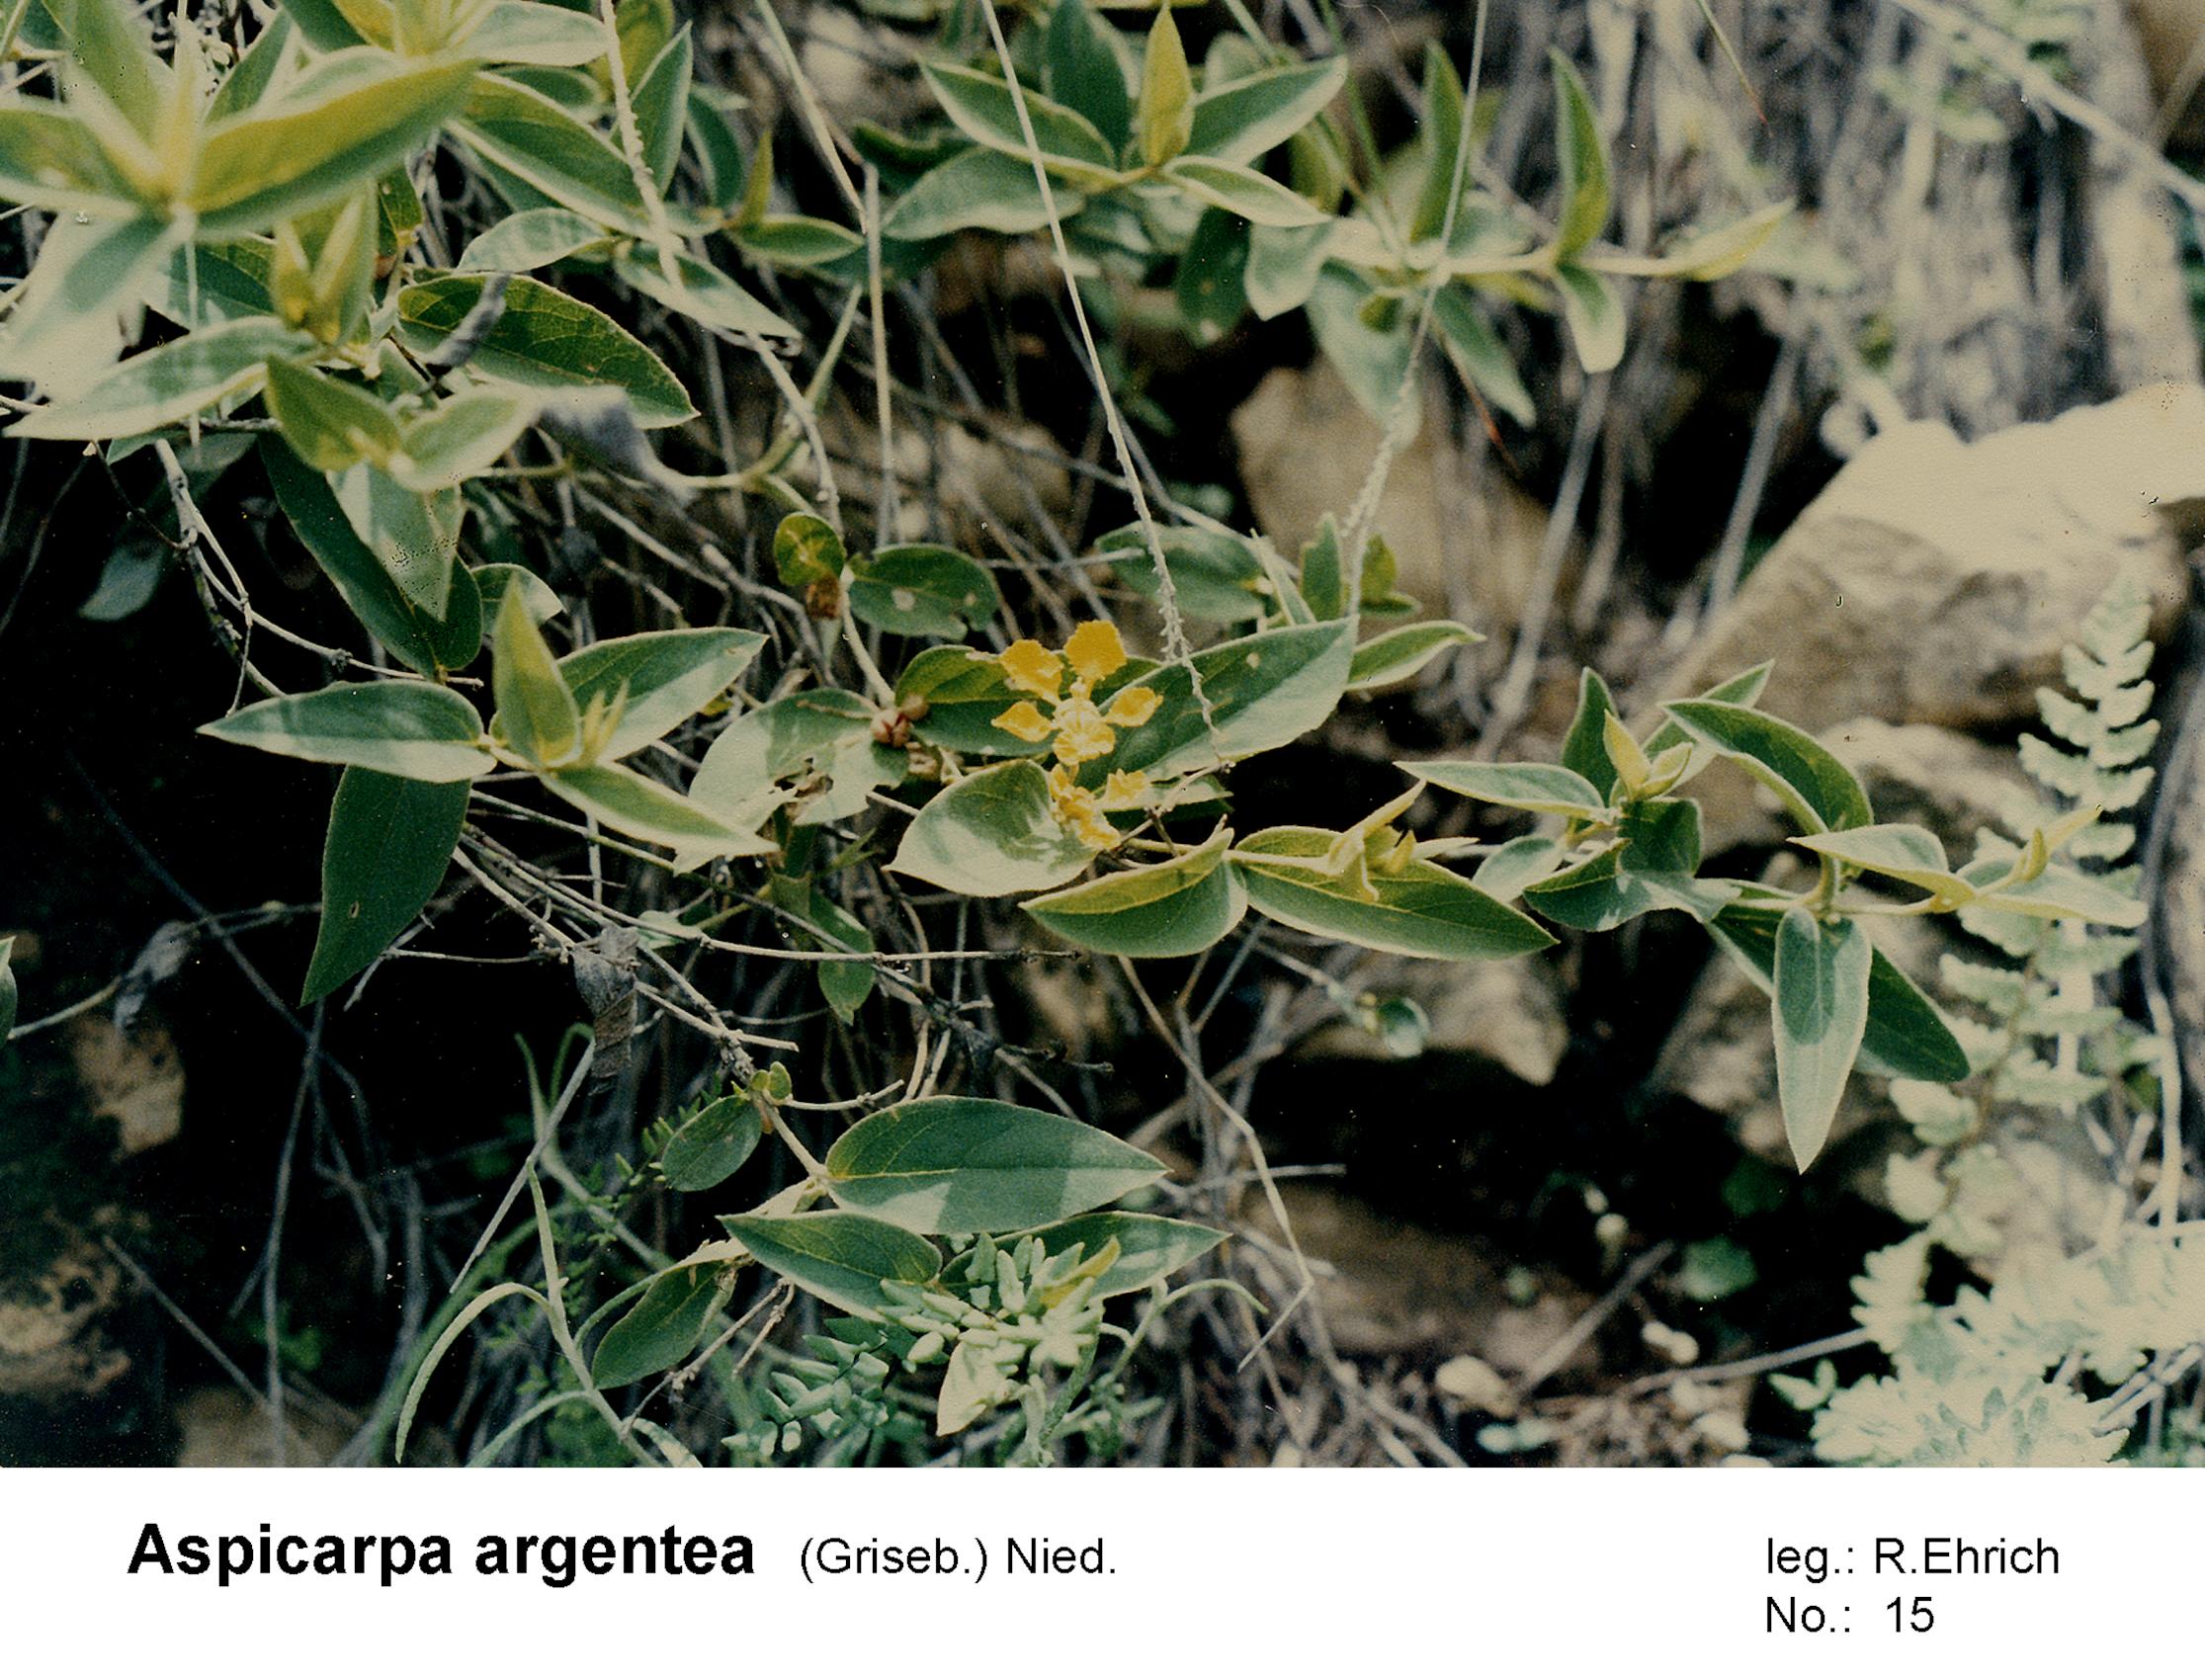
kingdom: Plantae
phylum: Tracheophyta
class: Magnoliopsida
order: Malpighiales
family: Malpighiaceae
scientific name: Malpighiaceae
